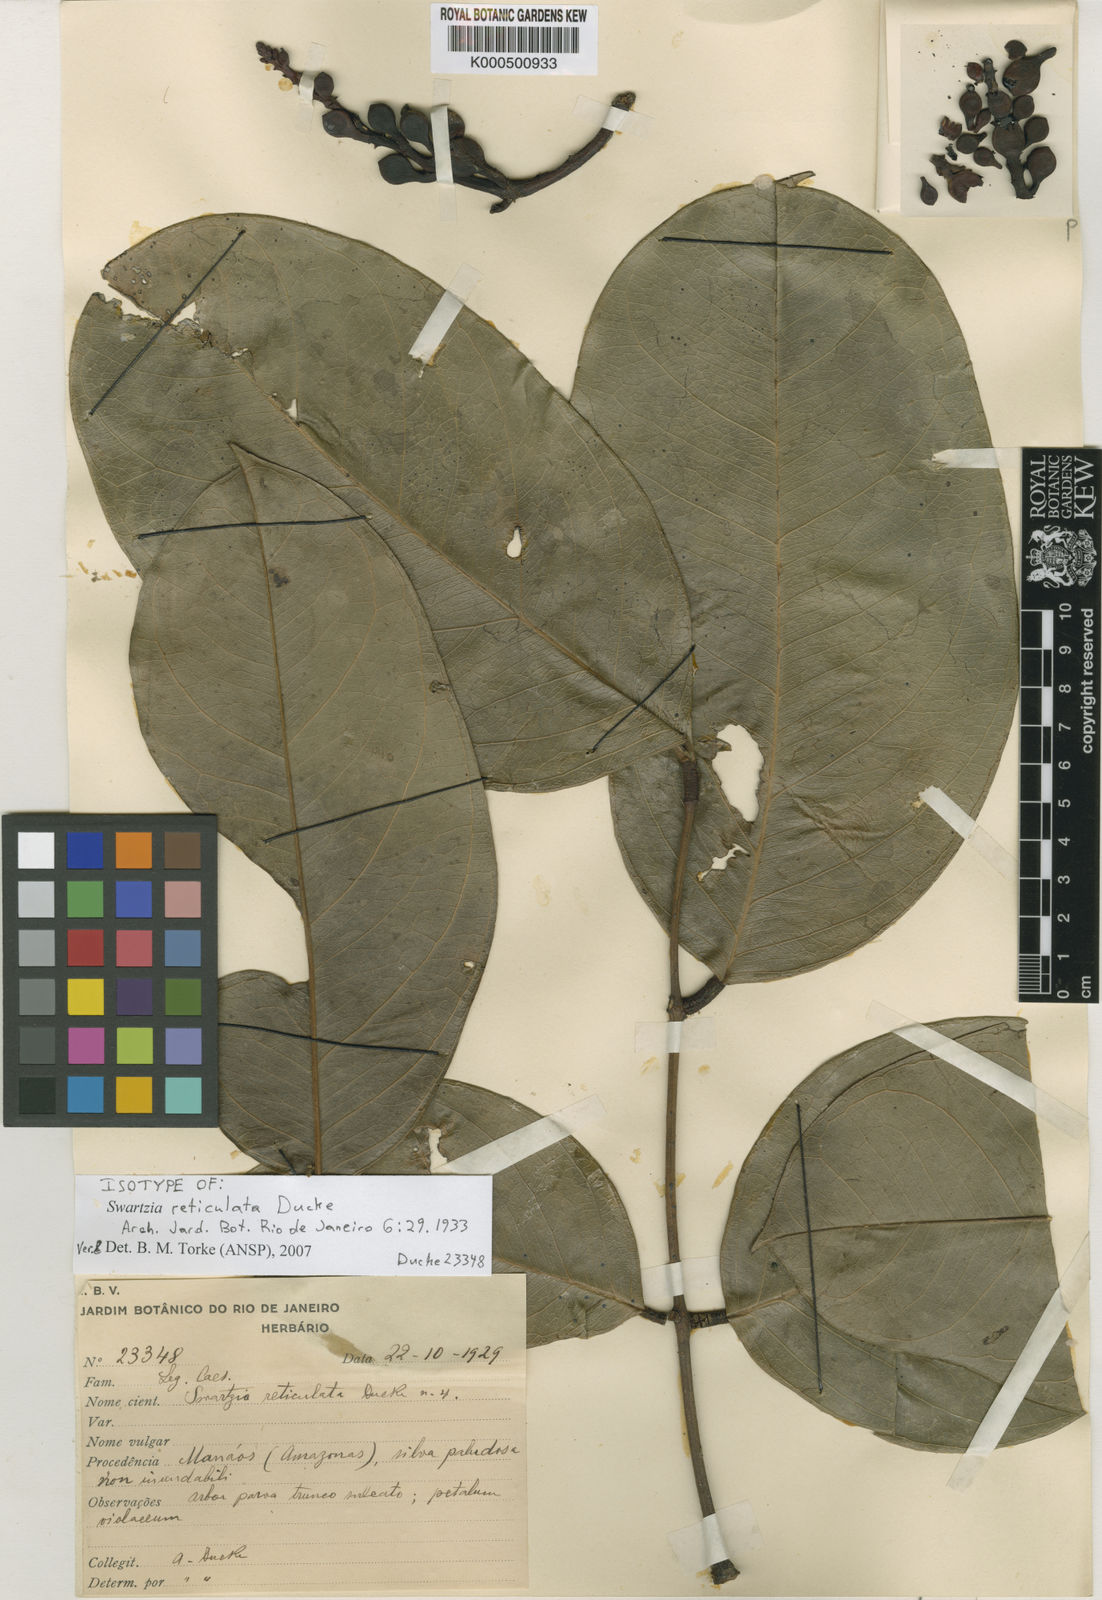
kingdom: Plantae
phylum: Tracheophyta
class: Magnoliopsida
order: Fabales
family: Fabaceae
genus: Swartzia
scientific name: Swartzia reticulata
